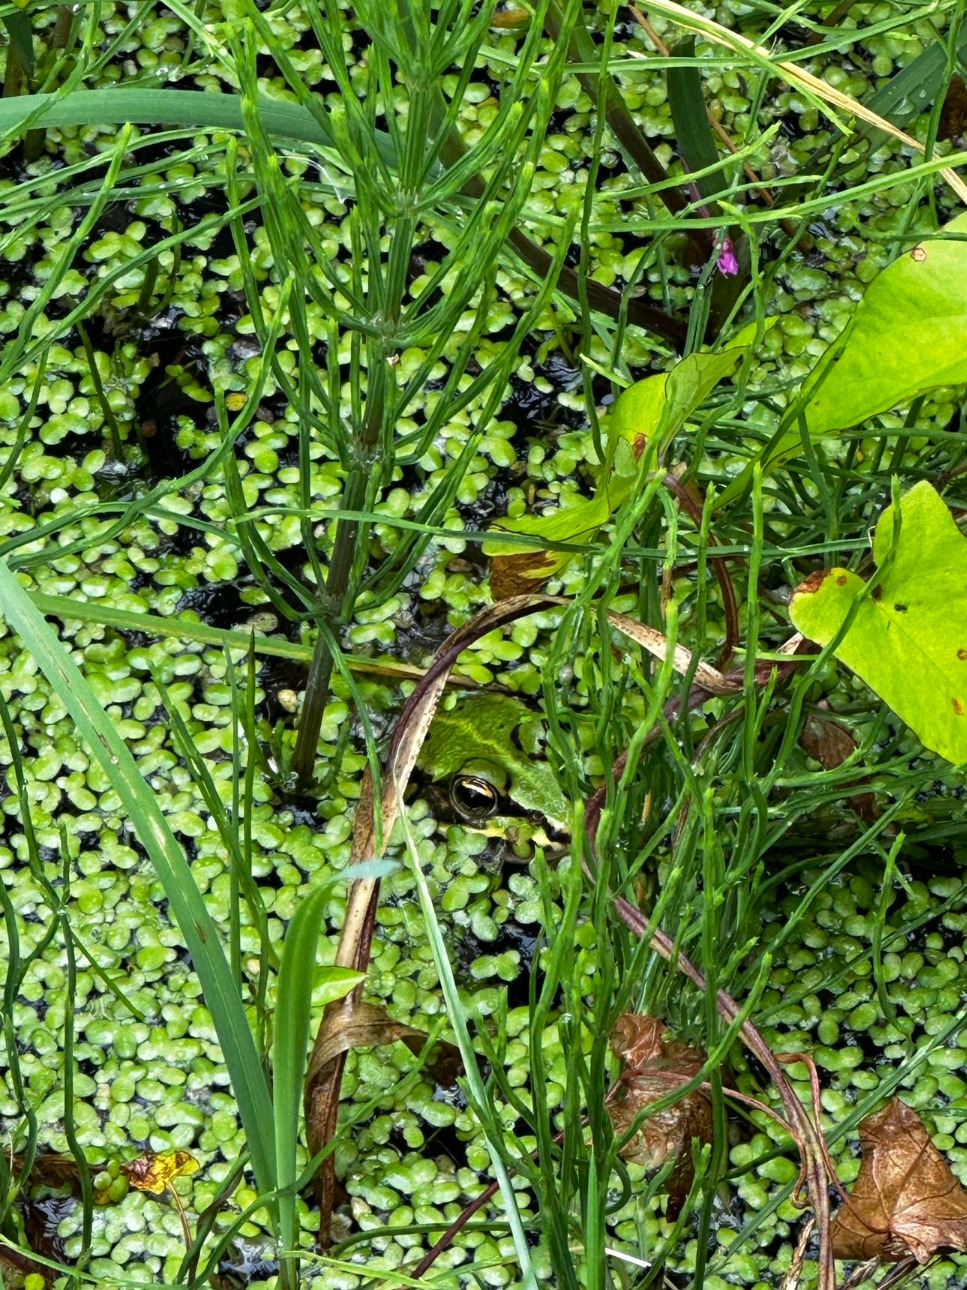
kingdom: Animalia
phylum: Chordata
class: Amphibia
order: Anura
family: Ranidae
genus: Pelophylax
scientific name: Pelophylax lessonae
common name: Grøn frø
